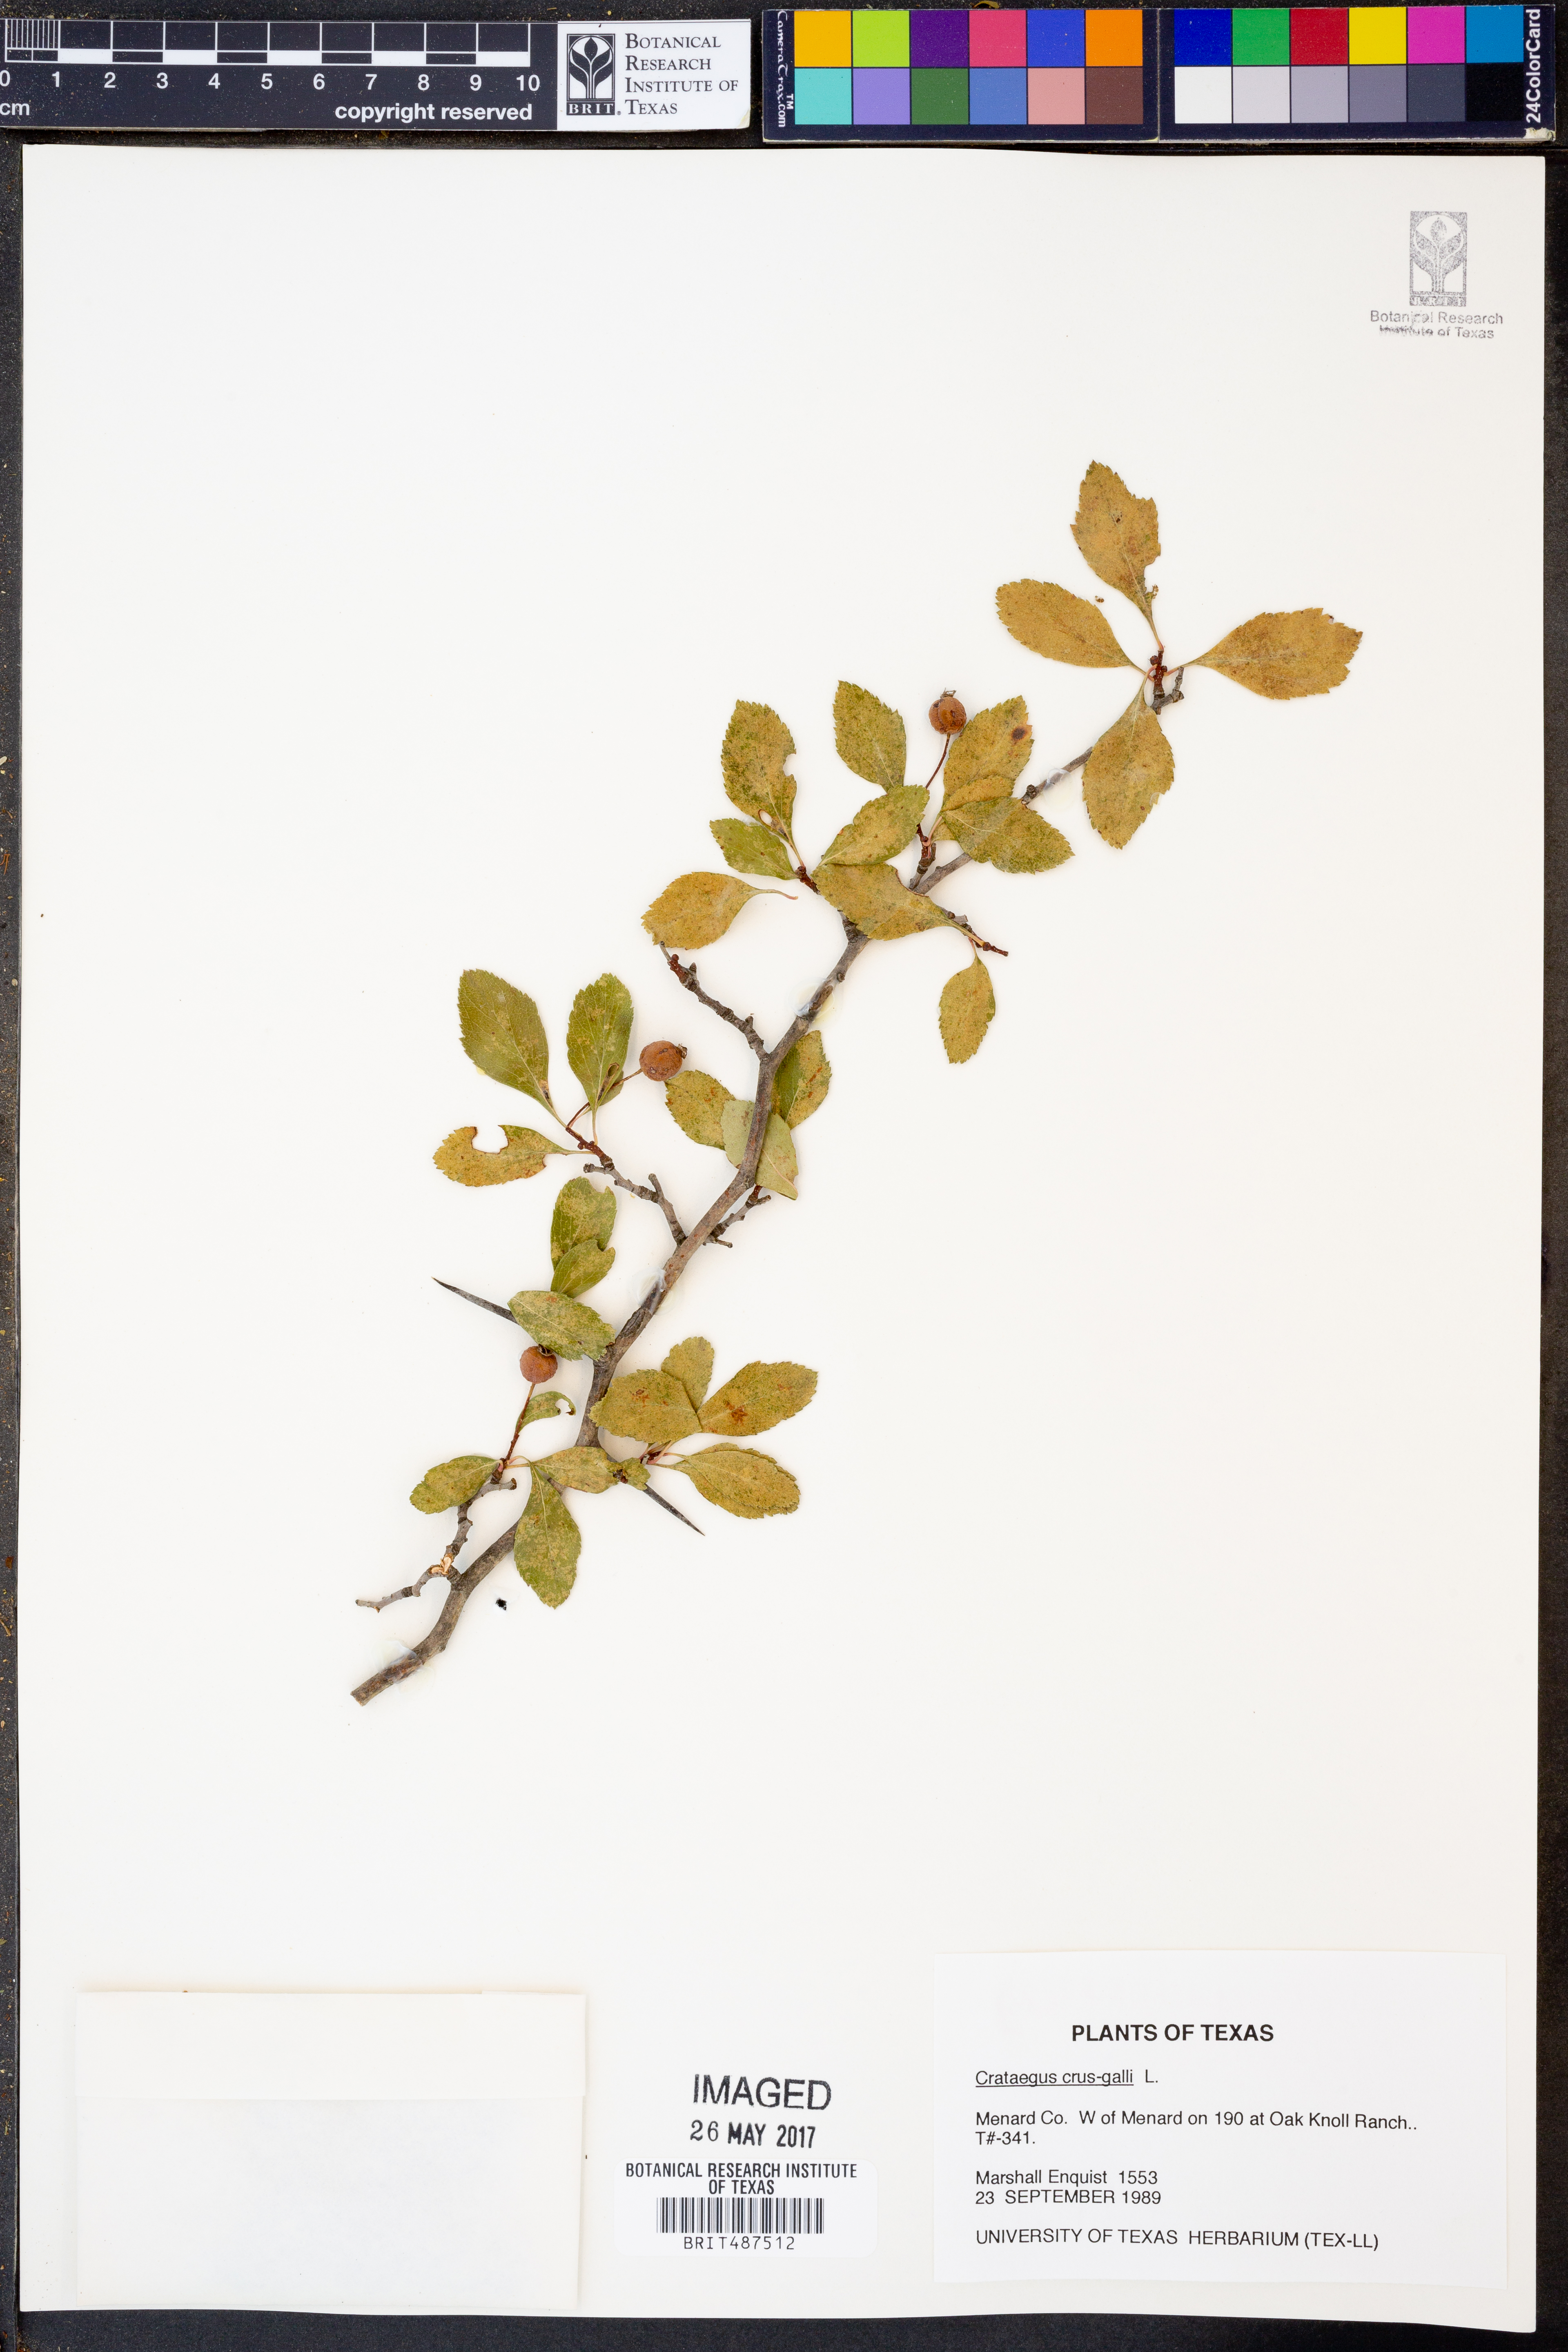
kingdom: Plantae
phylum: Tracheophyta
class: Magnoliopsida
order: Rosales
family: Rosaceae
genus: Crataegus
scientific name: Crataegus crus-galli
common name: Cockspurthorn
